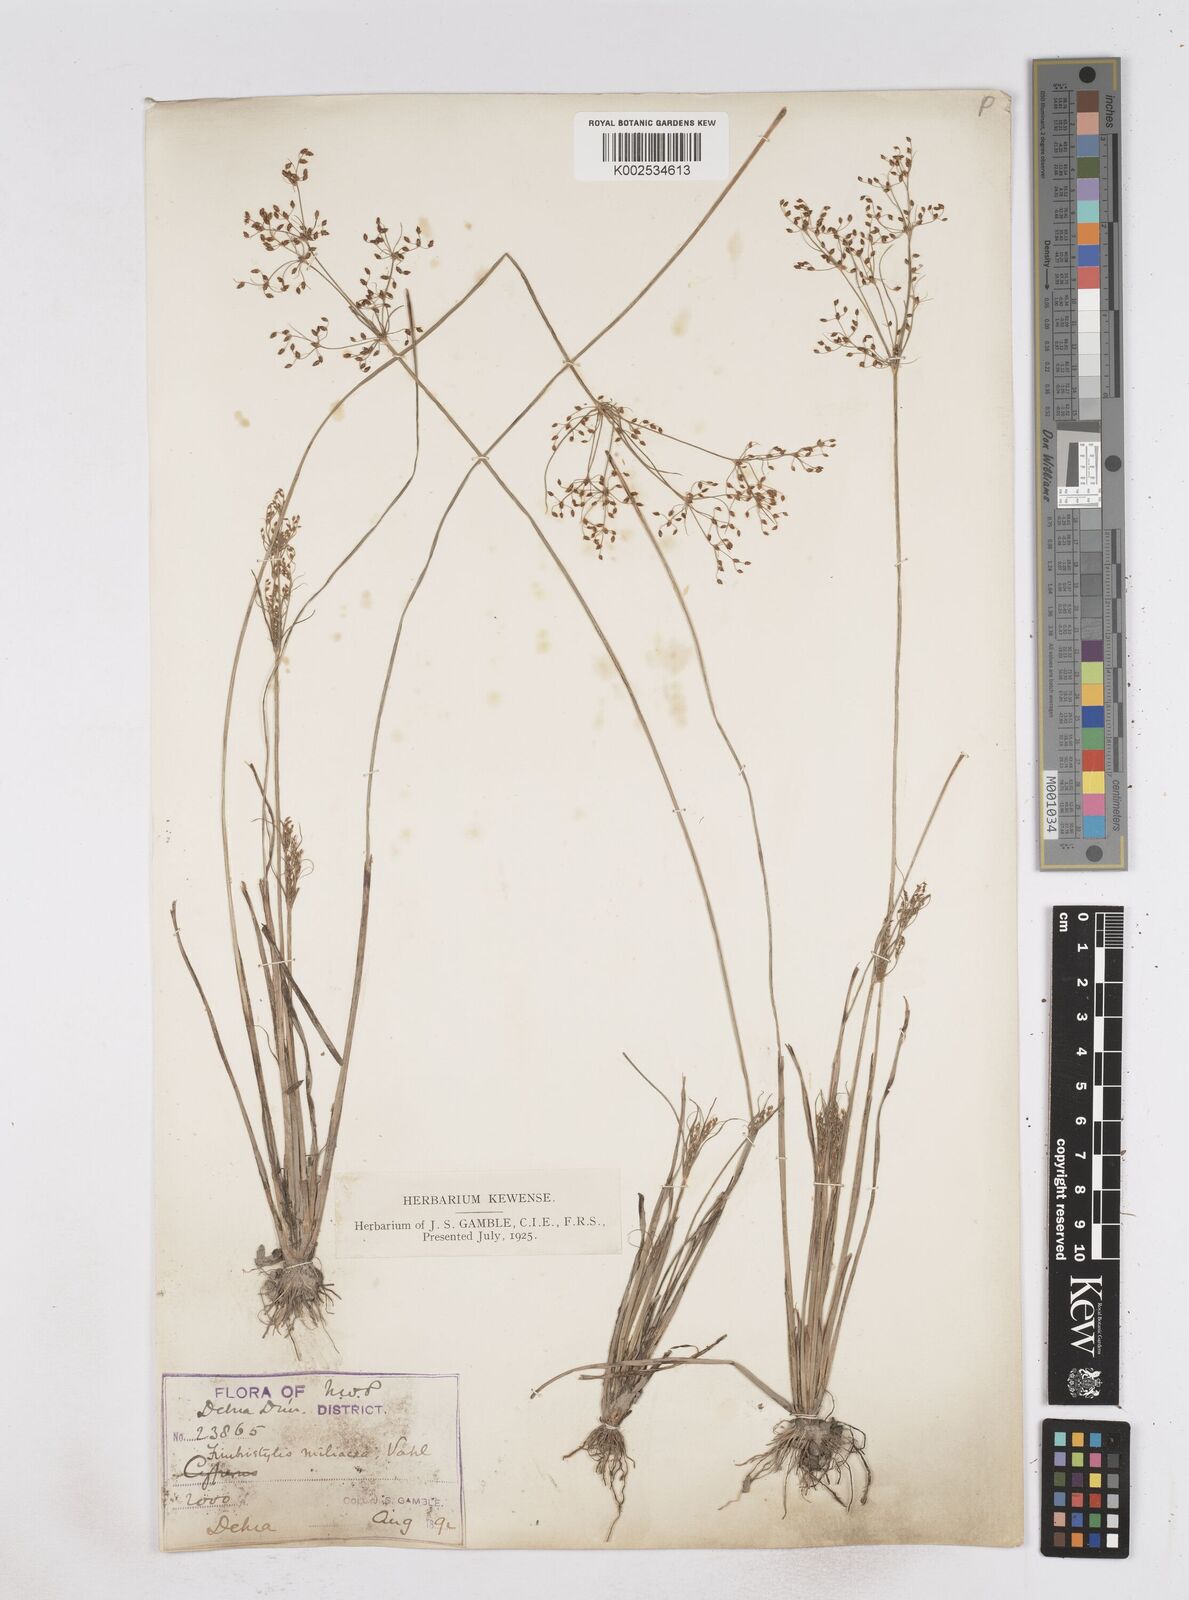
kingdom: Plantae
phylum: Tracheophyta
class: Liliopsida
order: Poales
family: Cyperaceae
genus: Fimbristylis
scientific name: Fimbristylis littoralis
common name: Fimbry
